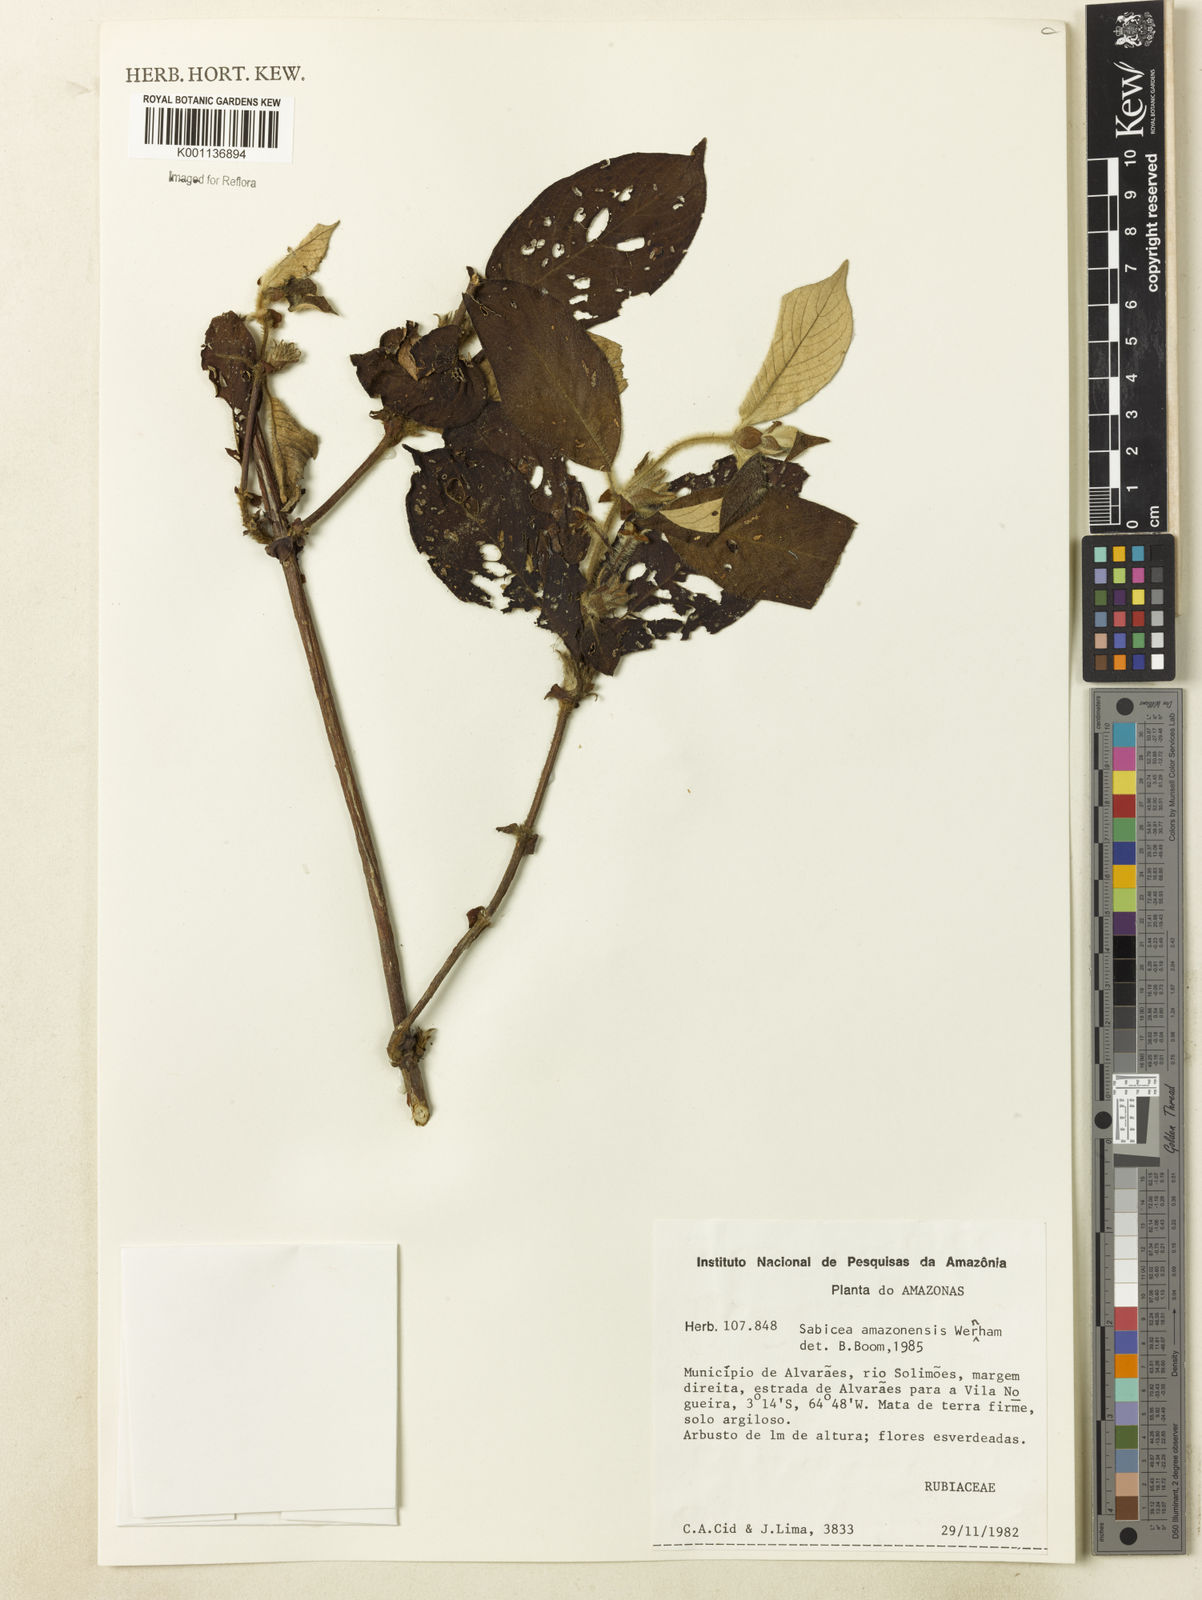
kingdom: Plantae
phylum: Tracheophyta
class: Magnoliopsida
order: Gentianales
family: Rubiaceae
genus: Sabicea
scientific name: Sabicea amazonensis
